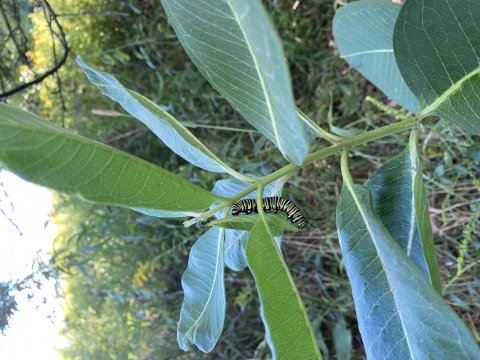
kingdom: Animalia
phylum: Arthropoda
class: Insecta
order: Lepidoptera
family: Nymphalidae
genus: Danaus
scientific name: Danaus plexippus
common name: Monarch
